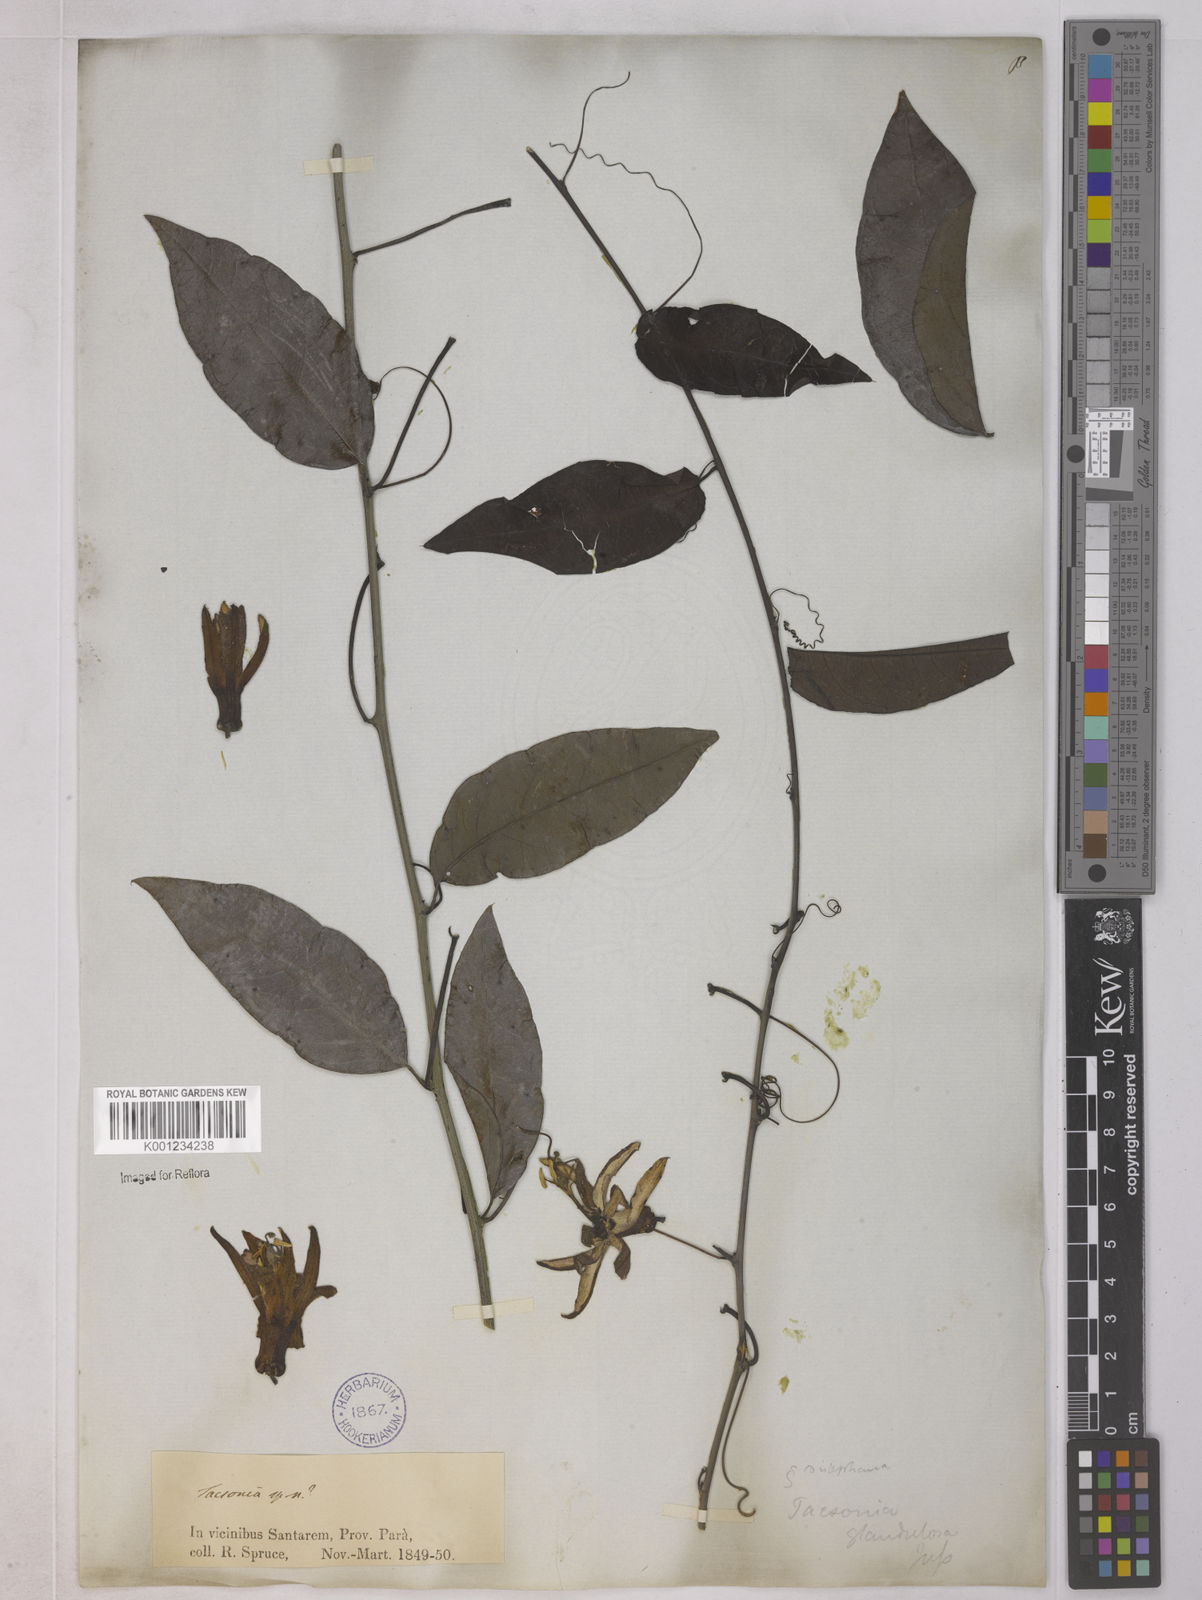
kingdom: Plantae
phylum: Tracheophyta
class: Magnoliopsida
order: Malpighiales
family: Passifloraceae
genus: Passiflora
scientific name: Passiflora glandulosa
